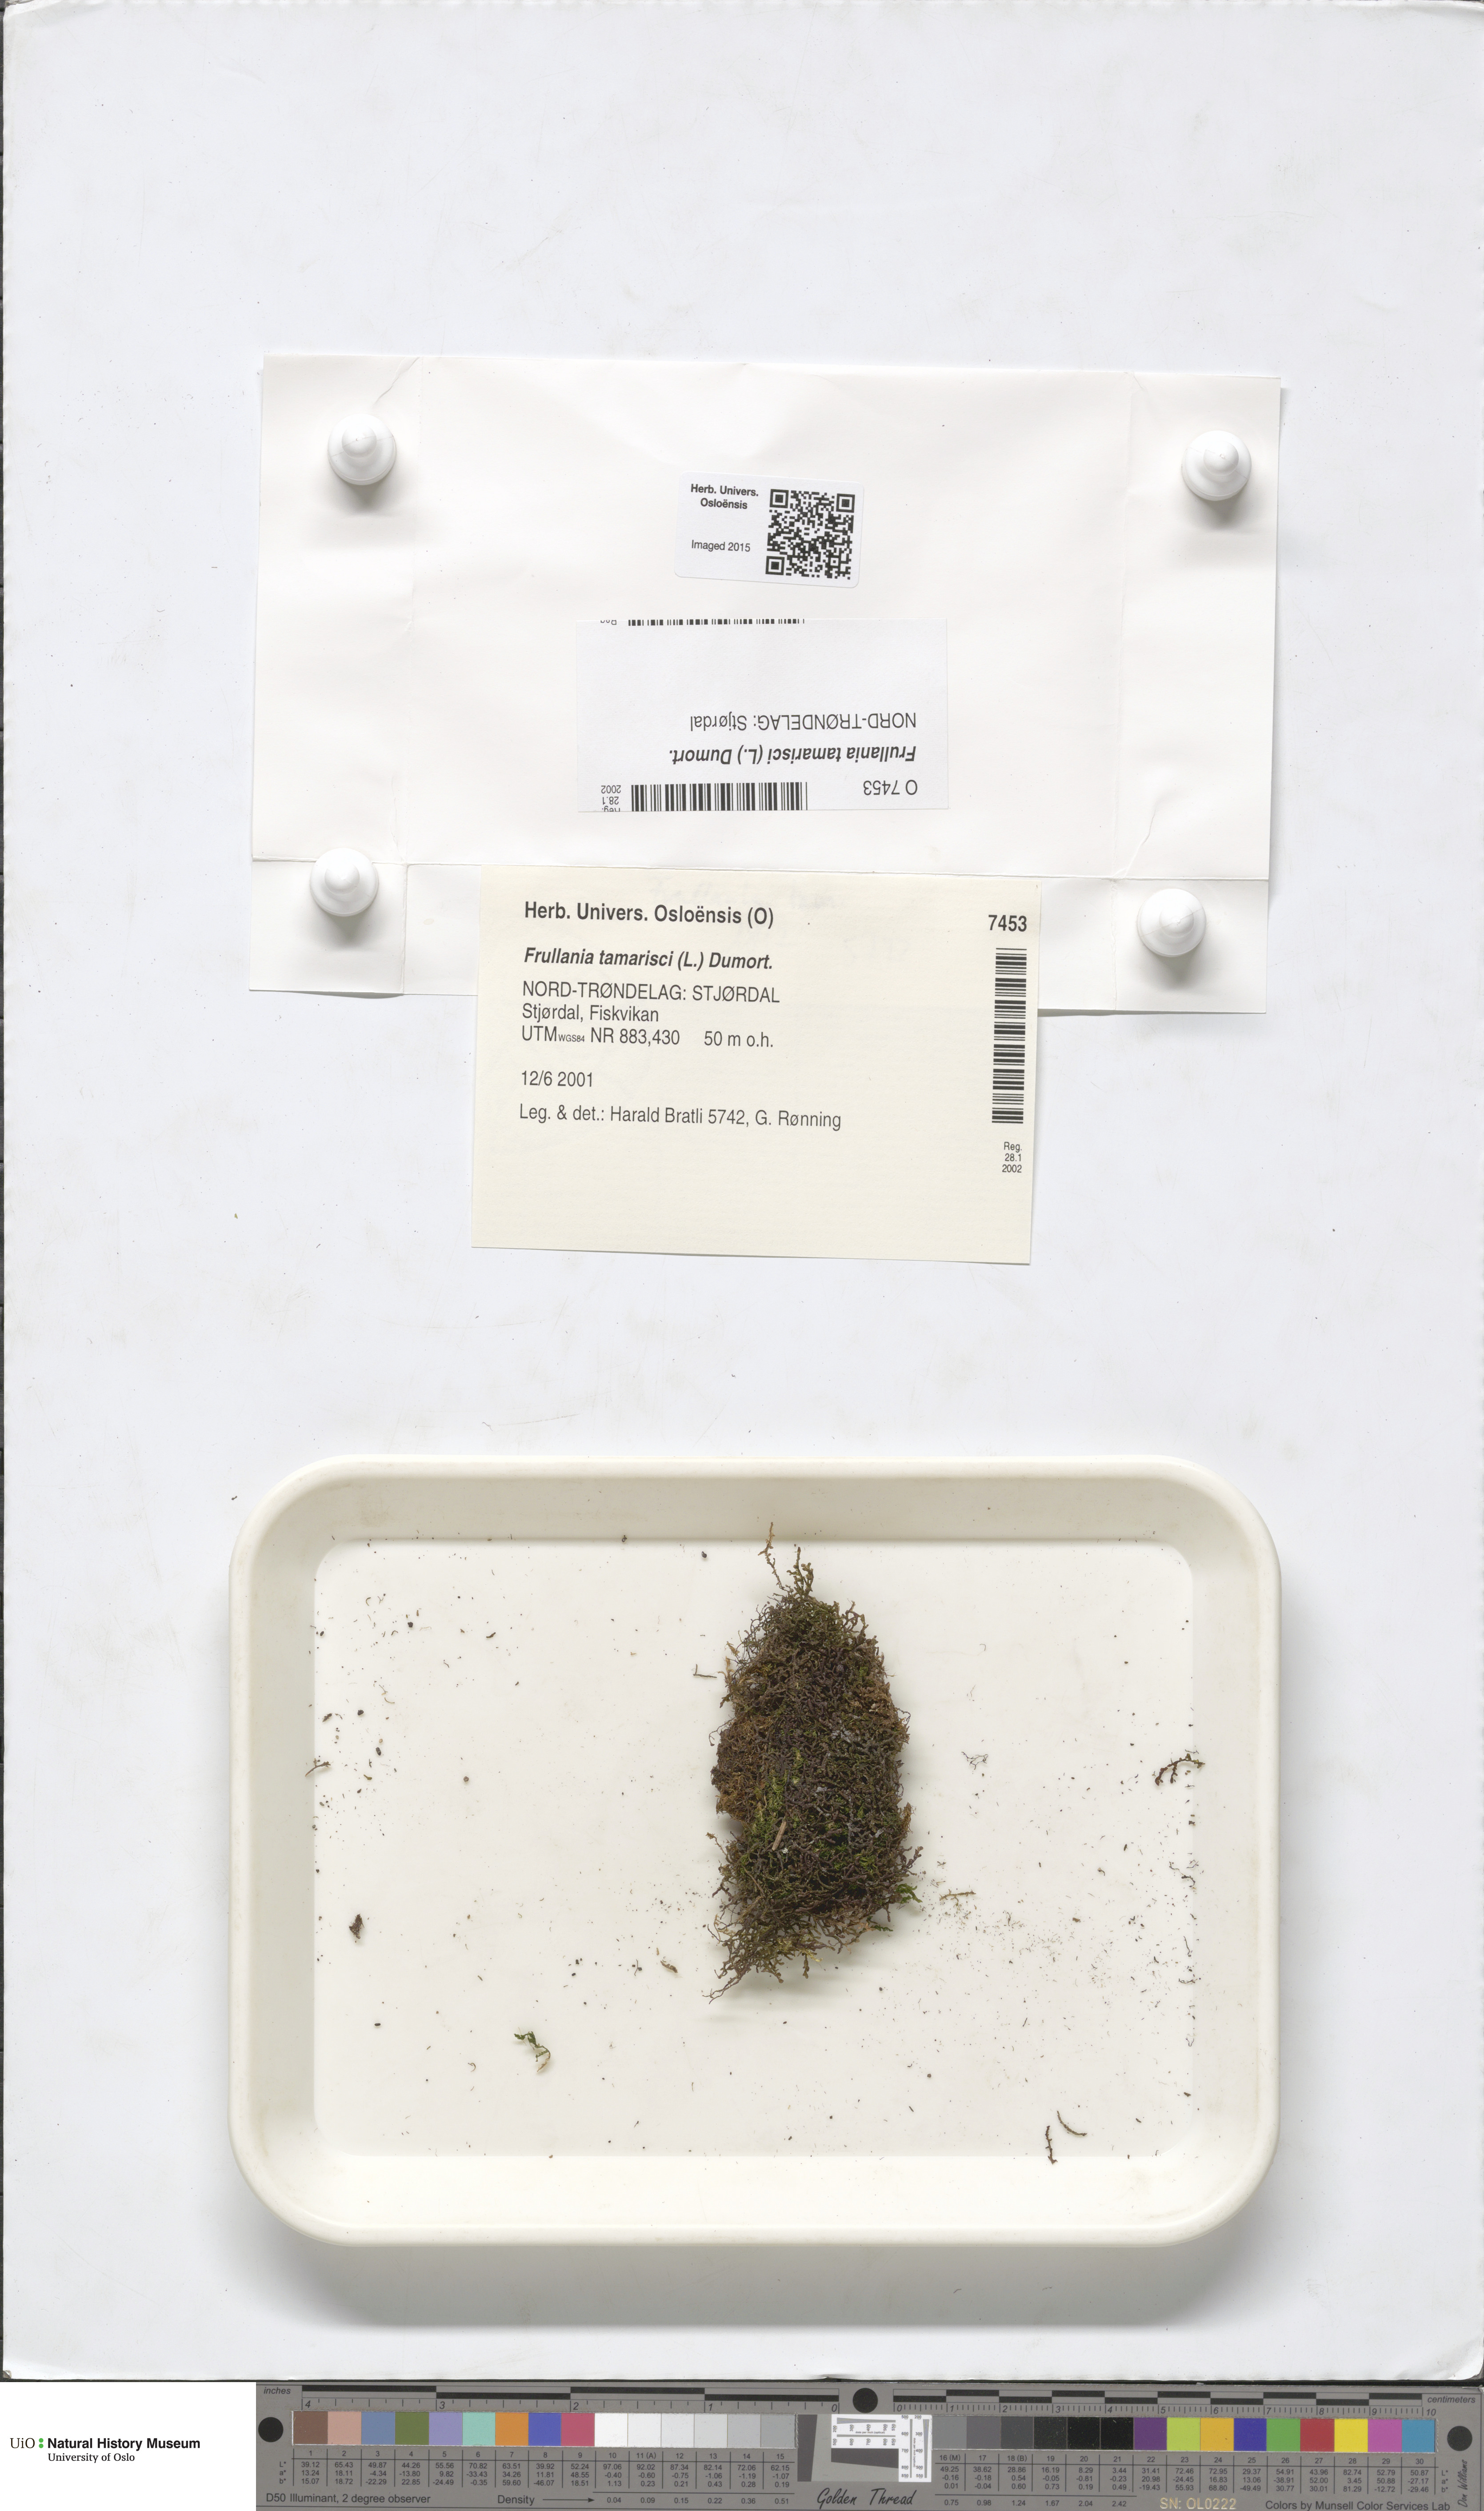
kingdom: Plantae
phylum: Marchantiophyta
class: Jungermanniopsida
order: Porellales
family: Frullaniaceae
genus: Frullania
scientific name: Frullania tamarisci
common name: Tamarisk scalewort
